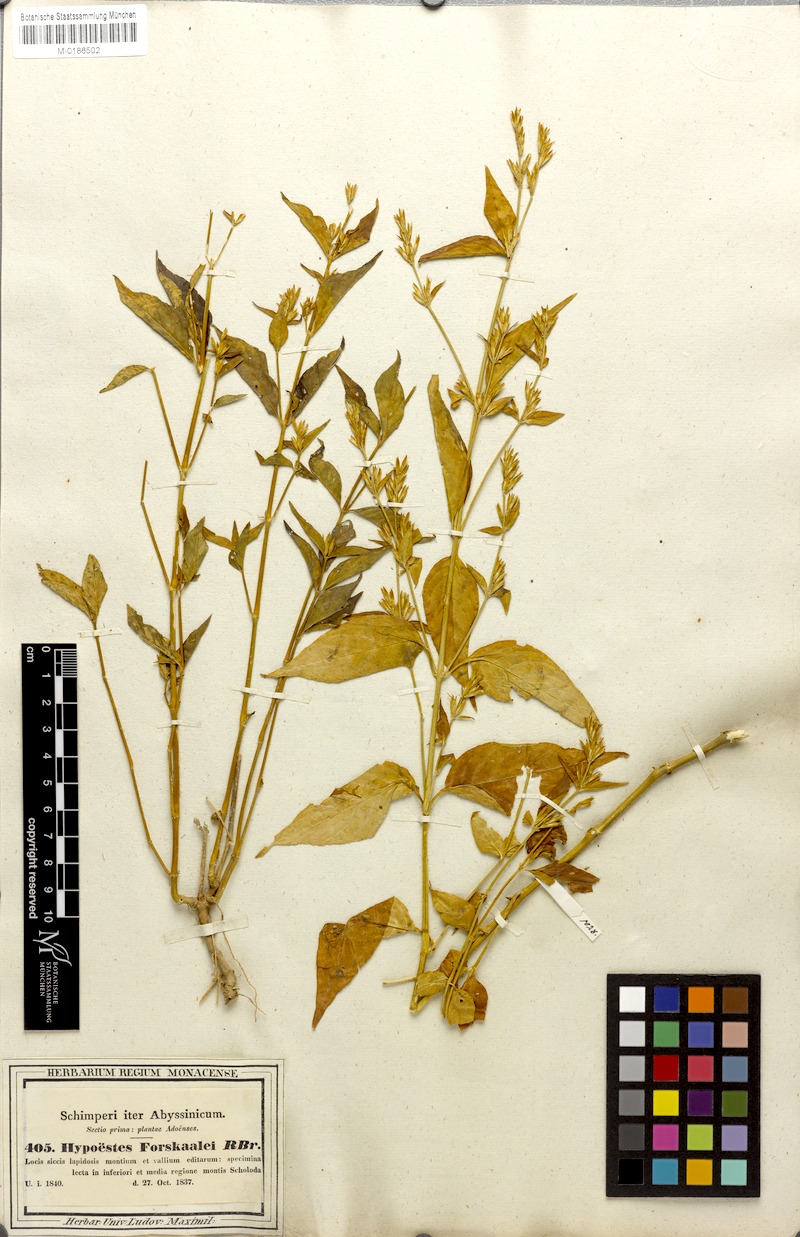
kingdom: Plantae
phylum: Tracheophyta
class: Magnoliopsida
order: Lamiales
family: Acanthaceae
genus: Hypoestes
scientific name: Hypoestes forskaolii
